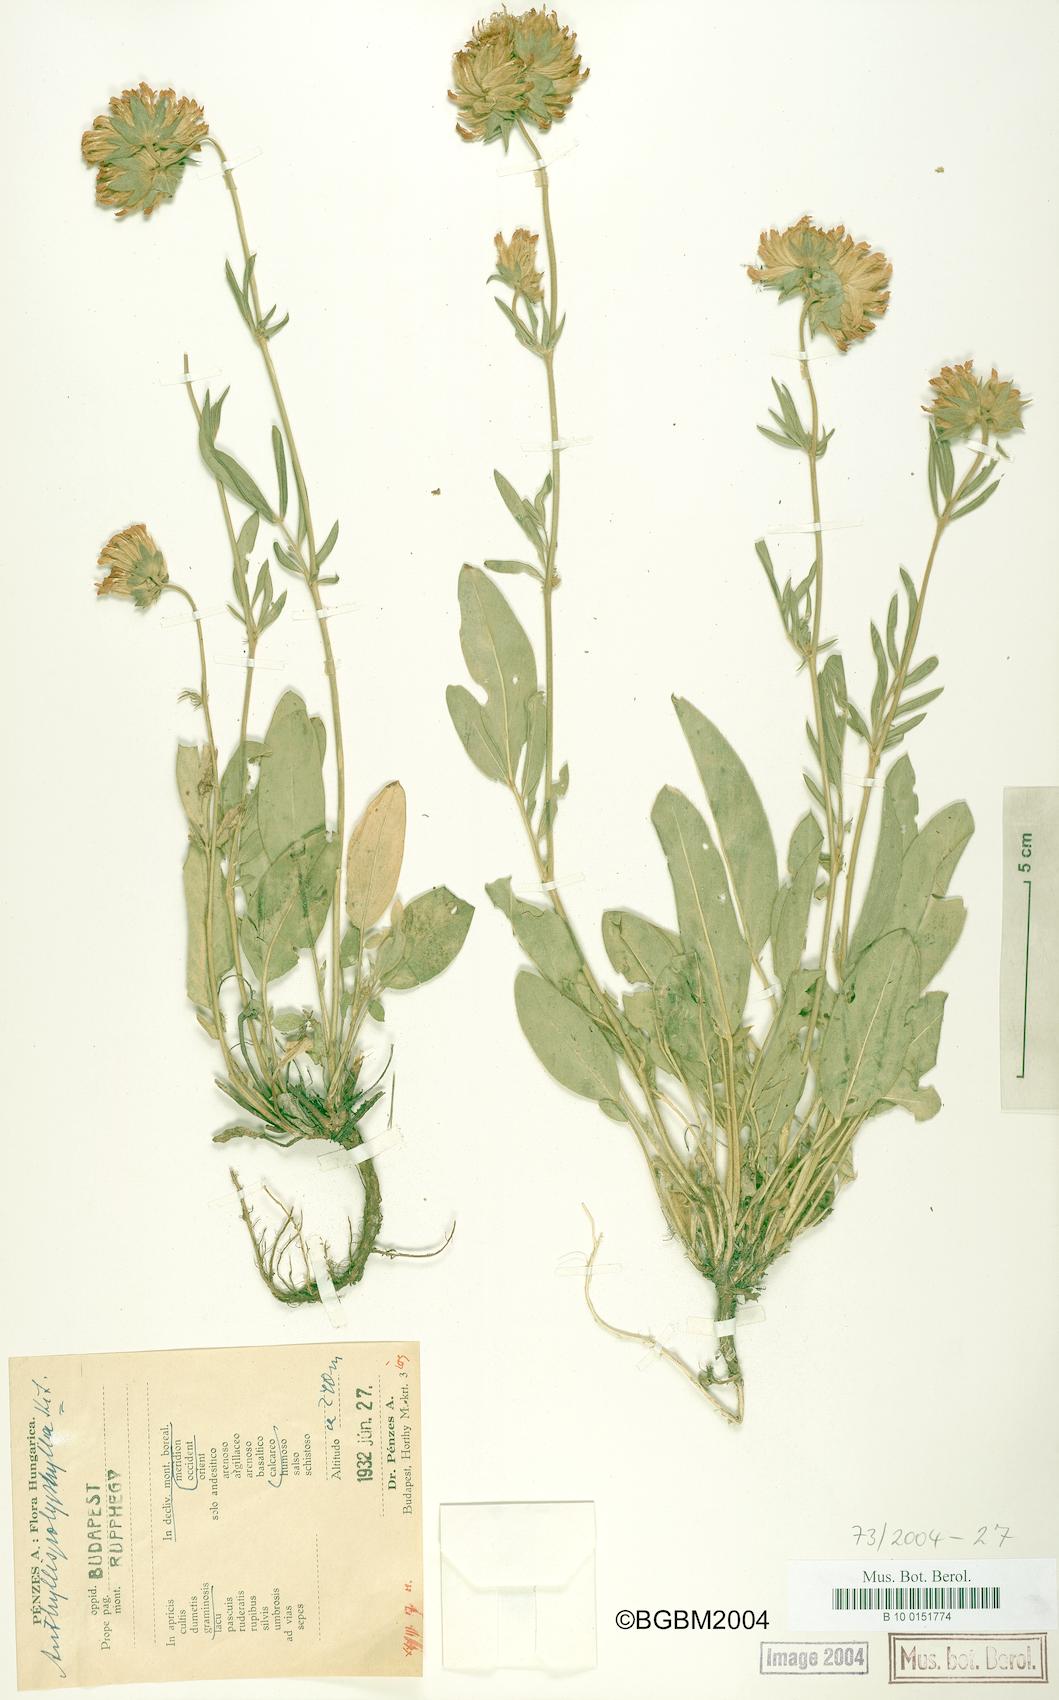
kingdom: Plantae
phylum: Tracheophyta
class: Magnoliopsida
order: Fabales
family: Fabaceae
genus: Anthyllis
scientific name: Anthyllis vulneraria
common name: Kidney vetch
